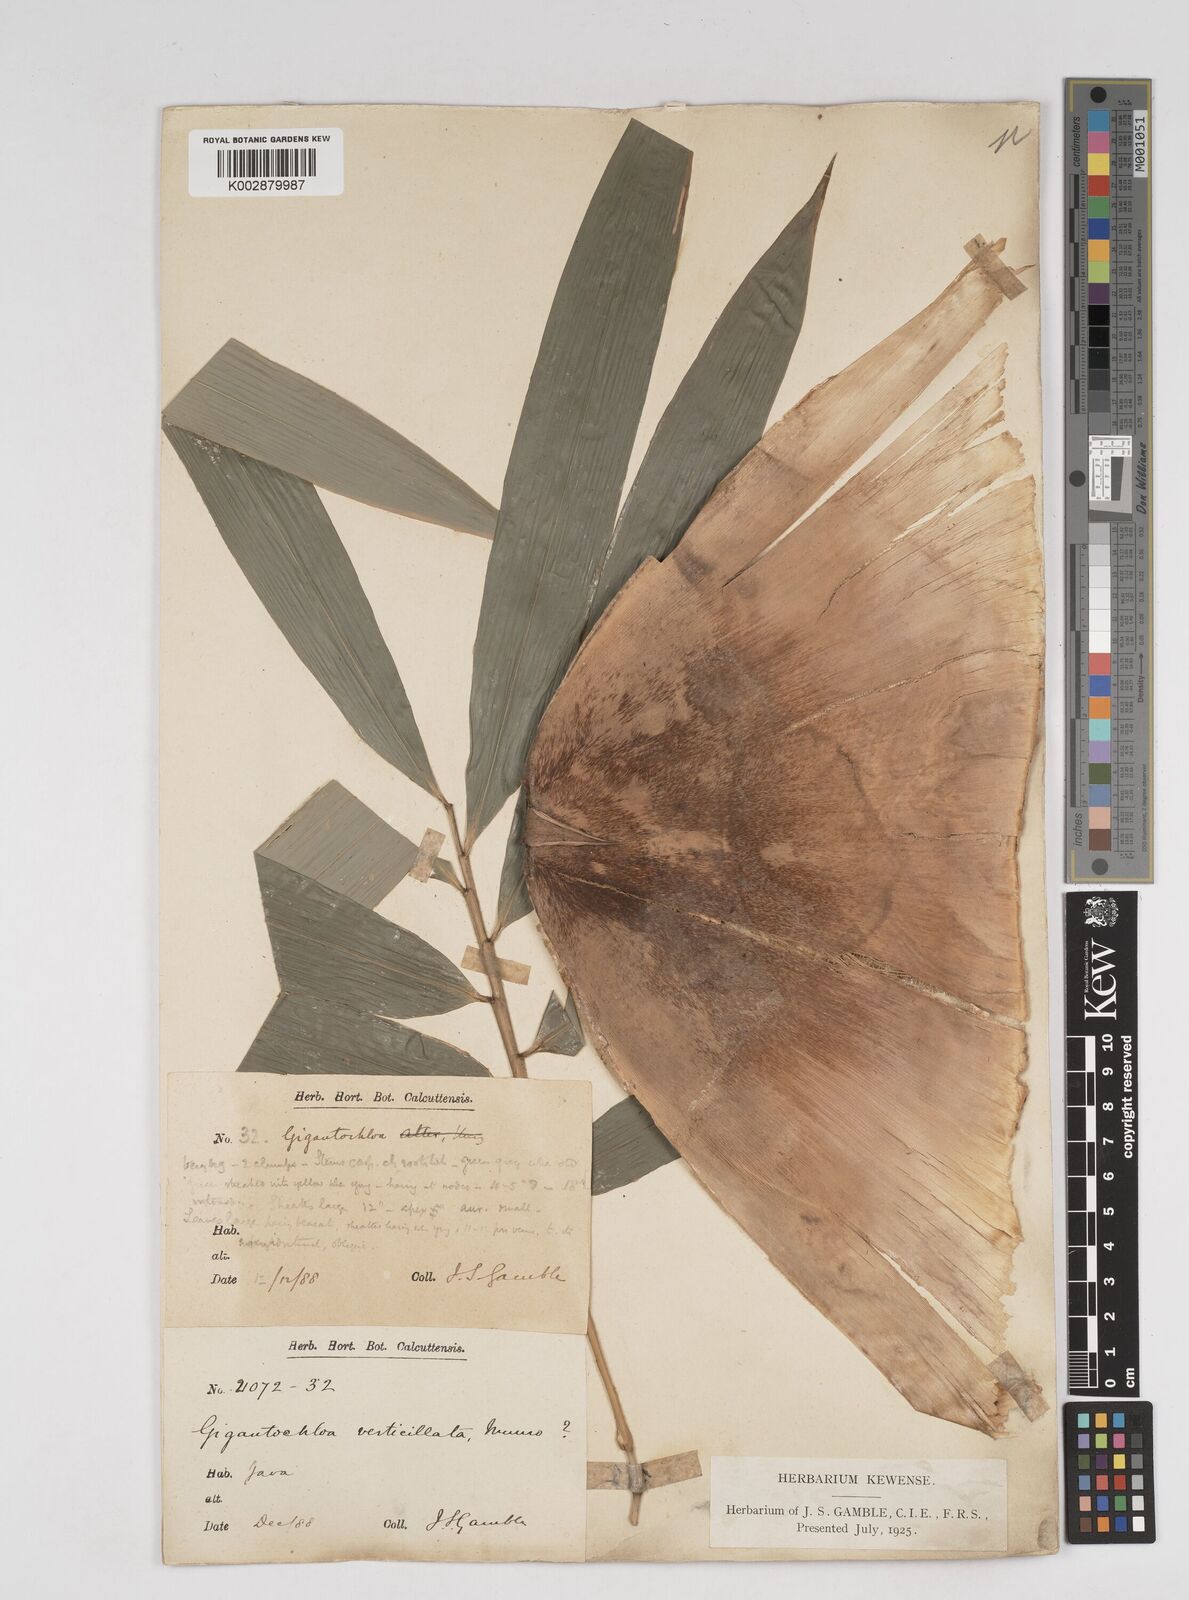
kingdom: Plantae
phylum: Tracheophyta
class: Liliopsida
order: Poales
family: Poaceae
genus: Gigantochloa
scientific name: Gigantochloa verticillata
